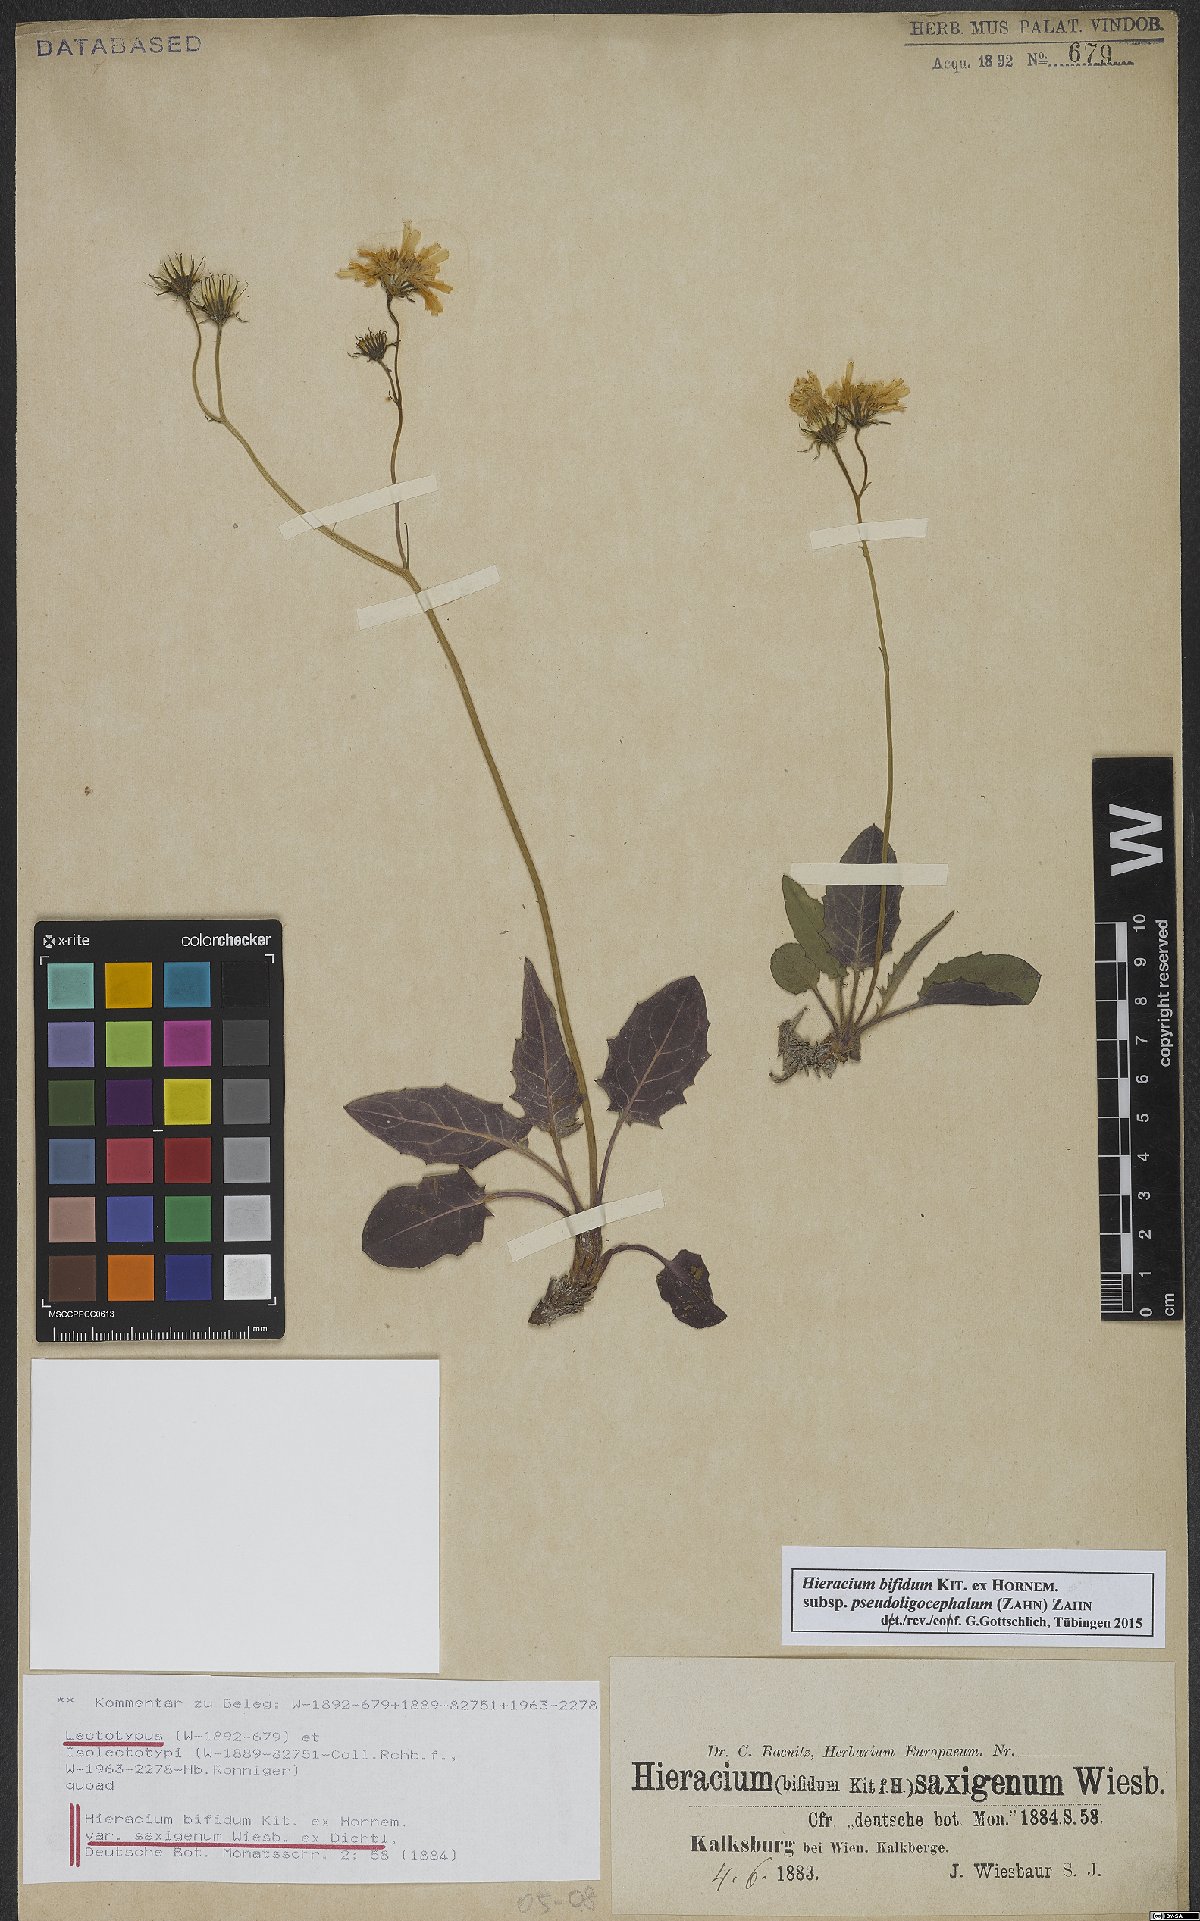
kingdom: Plantae
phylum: Tracheophyta
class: Magnoliopsida
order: Asterales
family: Asteraceae
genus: Hieracium
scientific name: Hieracium bifidum
